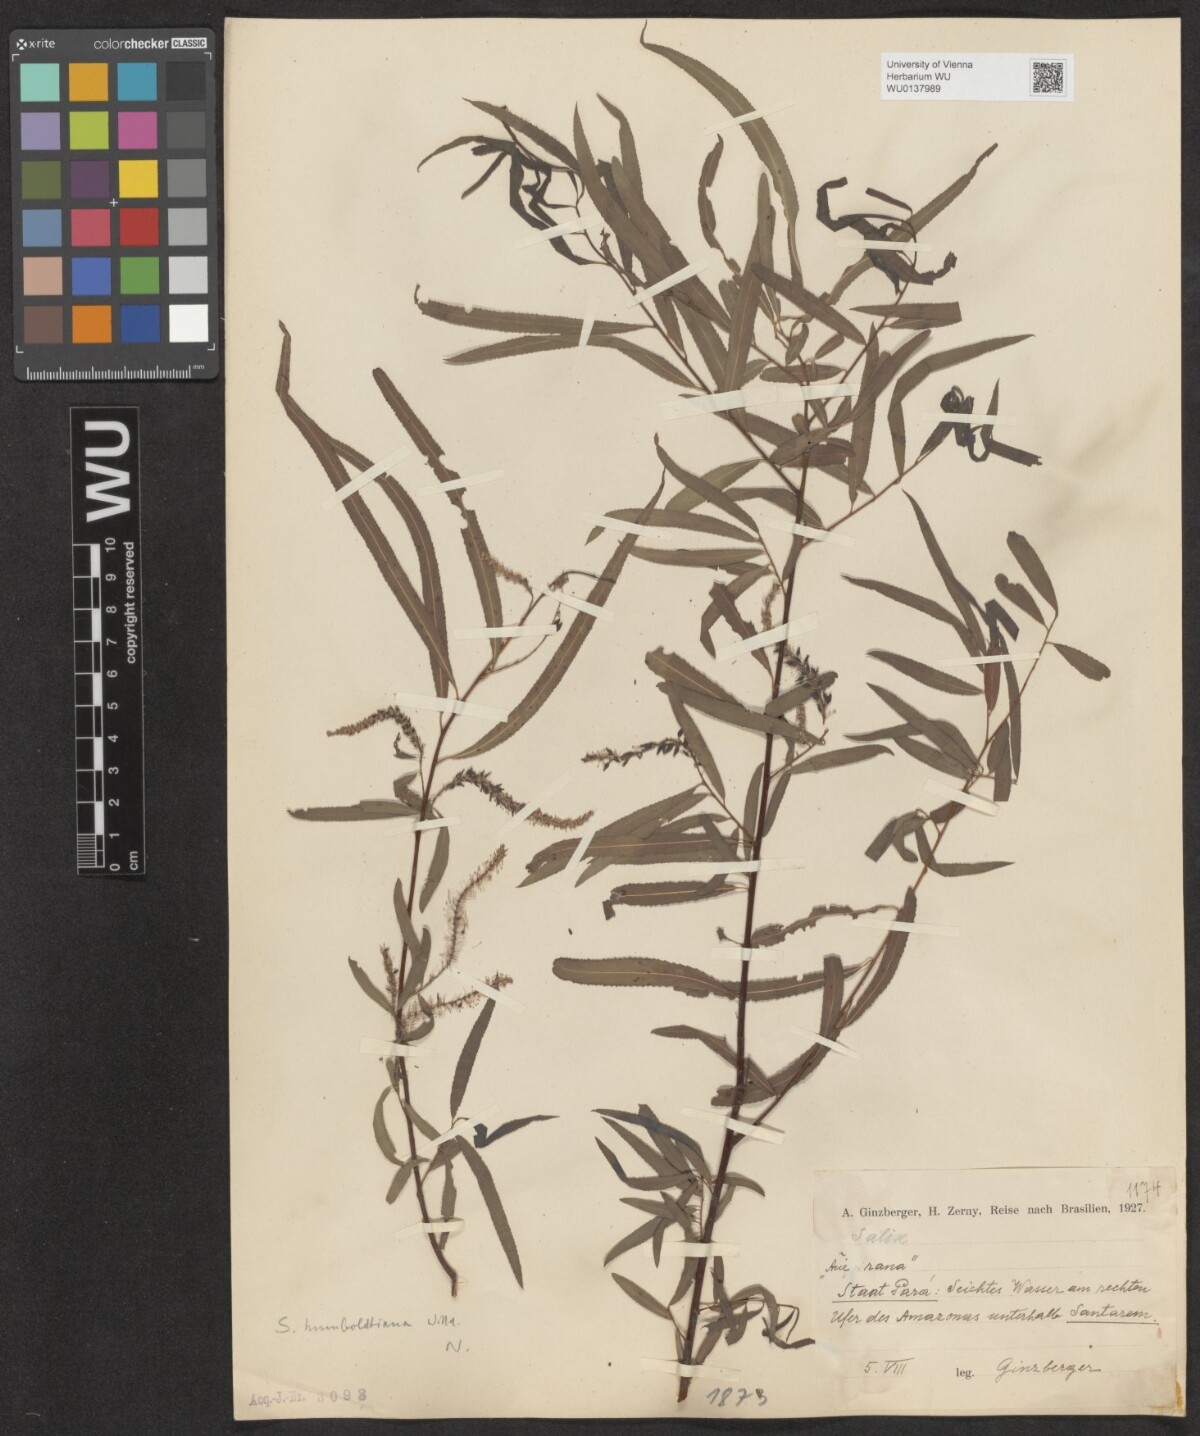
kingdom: Plantae
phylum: Tracheophyta
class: Magnoliopsida
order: Malpighiales
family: Salicaceae
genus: Salix
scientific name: Salix humboldtiana
